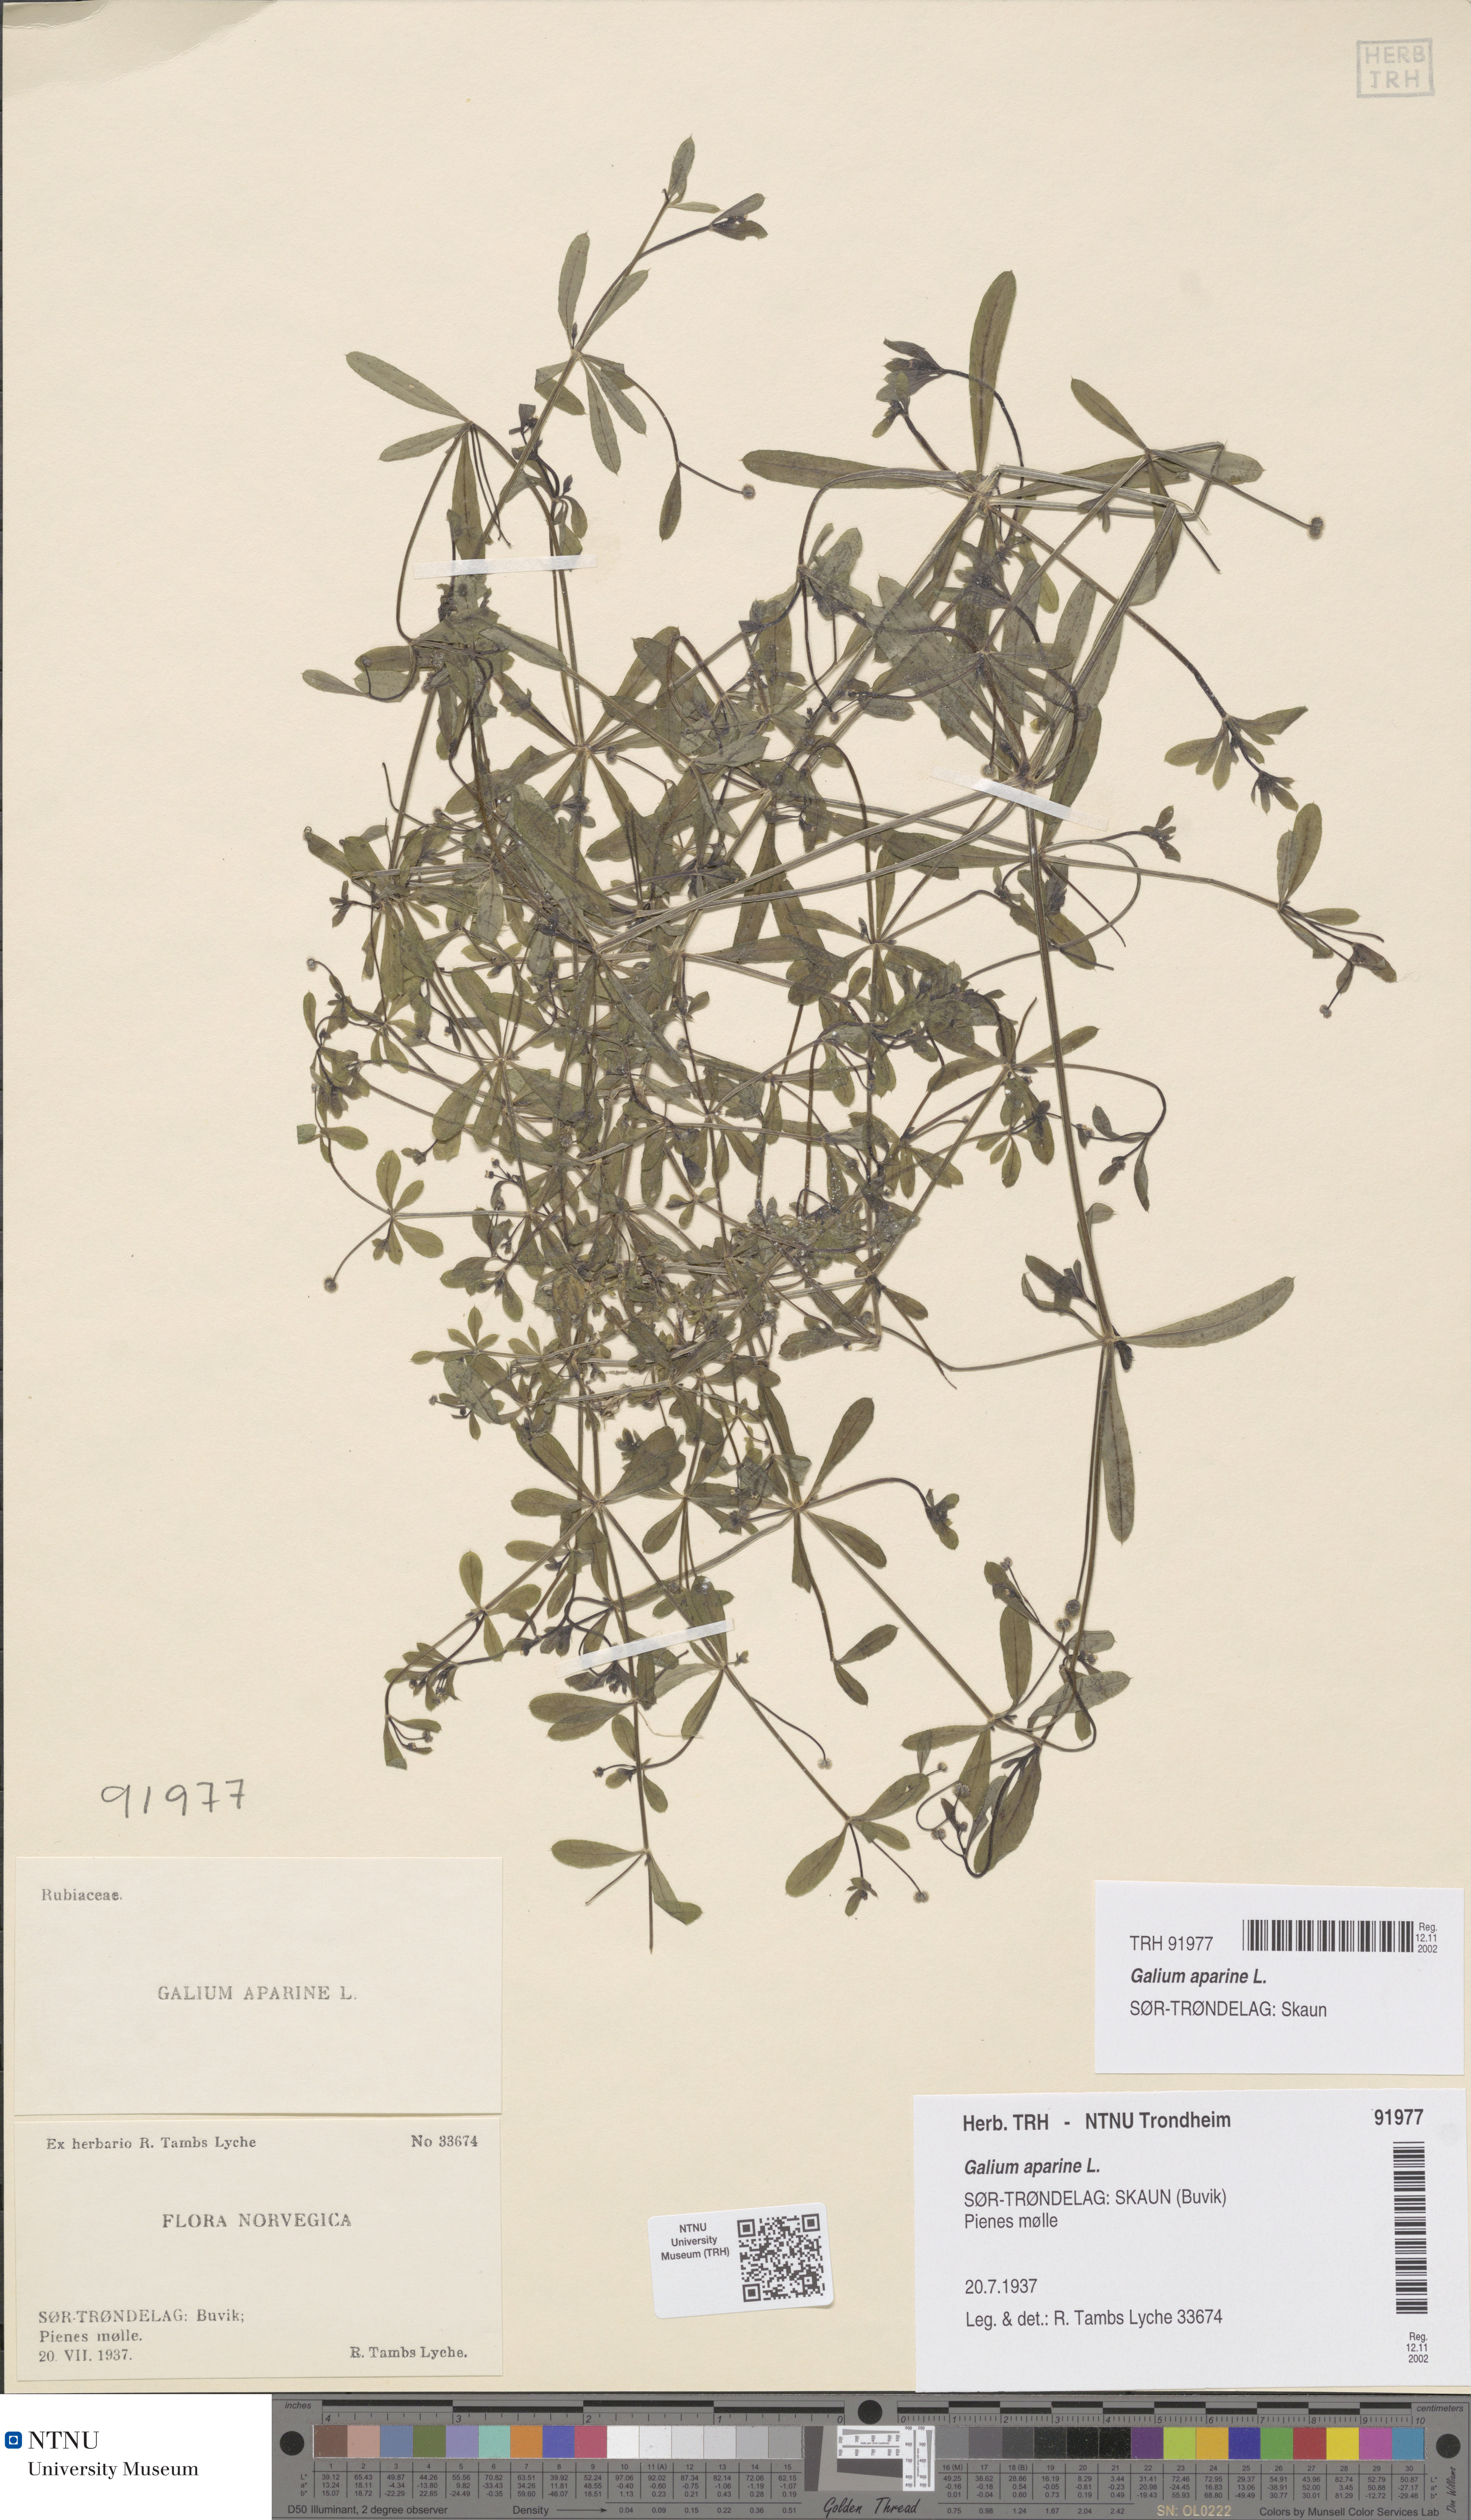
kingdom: Plantae
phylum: Tracheophyta
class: Magnoliopsida
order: Gentianales
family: Rubiaceae
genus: Galium
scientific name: Galium aparine
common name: Cleavers
